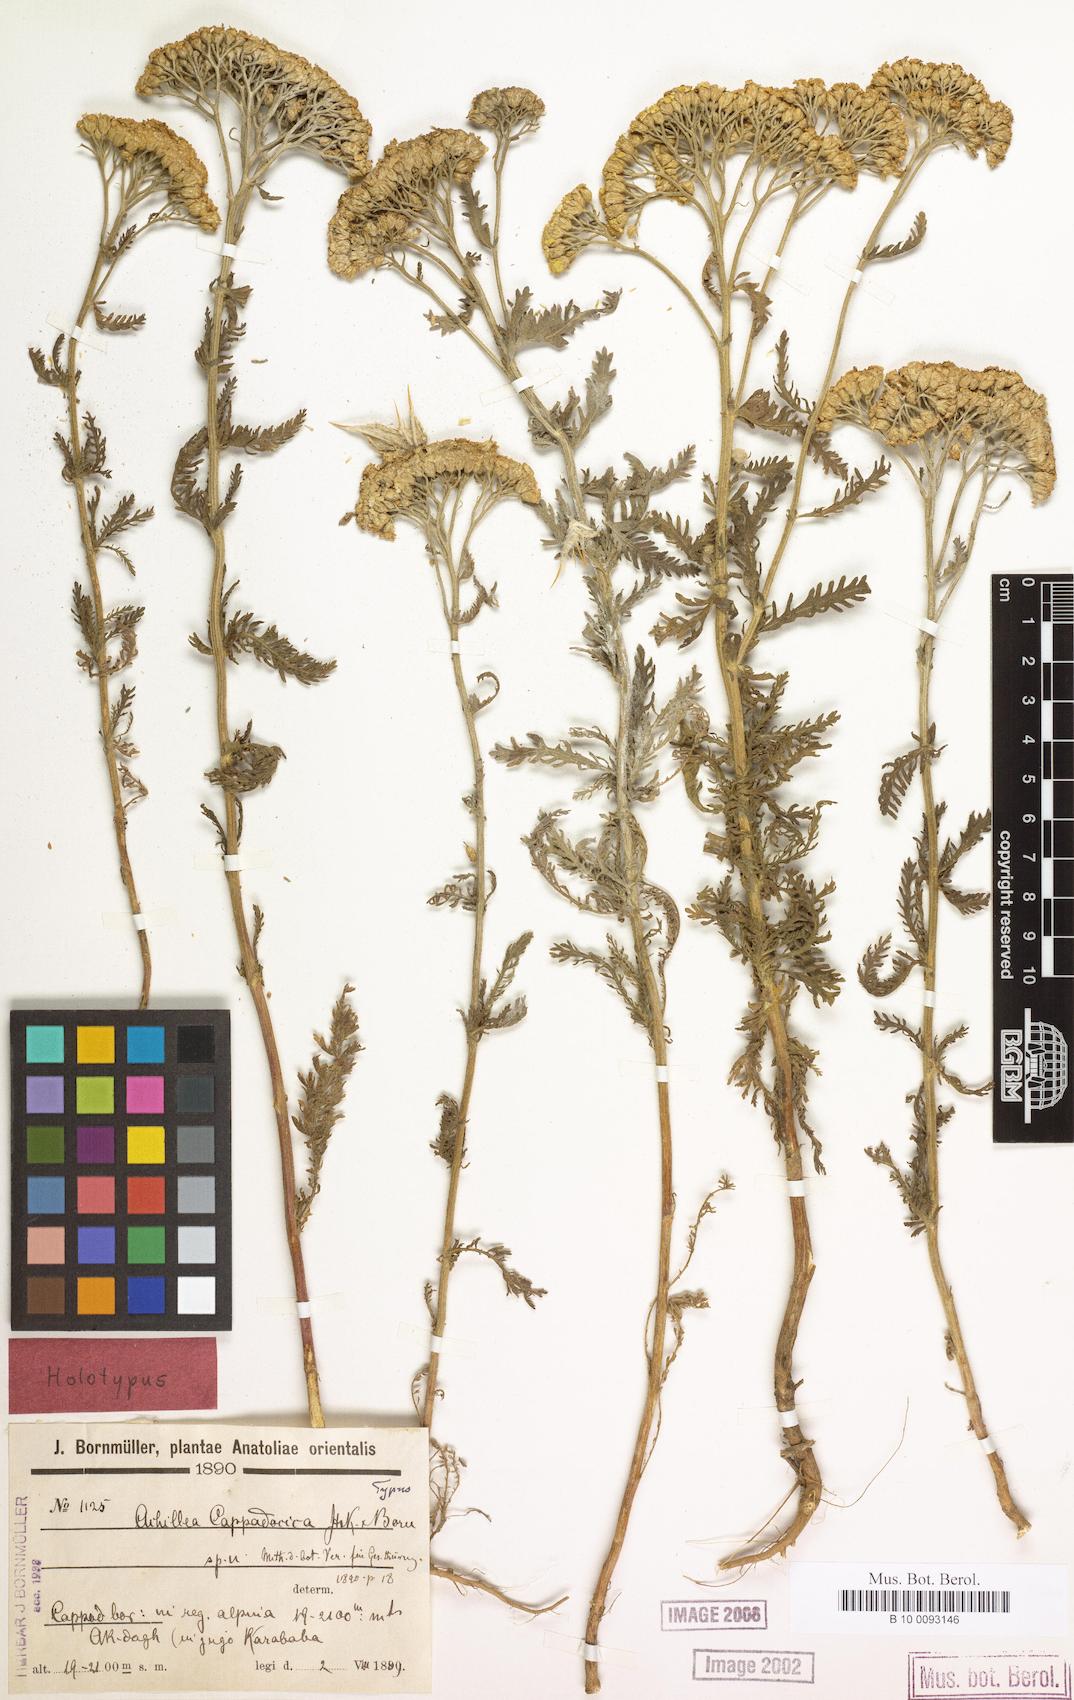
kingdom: Plantae
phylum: Tracheophyta
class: Magnoliopsida
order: Asterales
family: Asteraceae
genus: Achillea
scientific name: Achillea cappadocica
